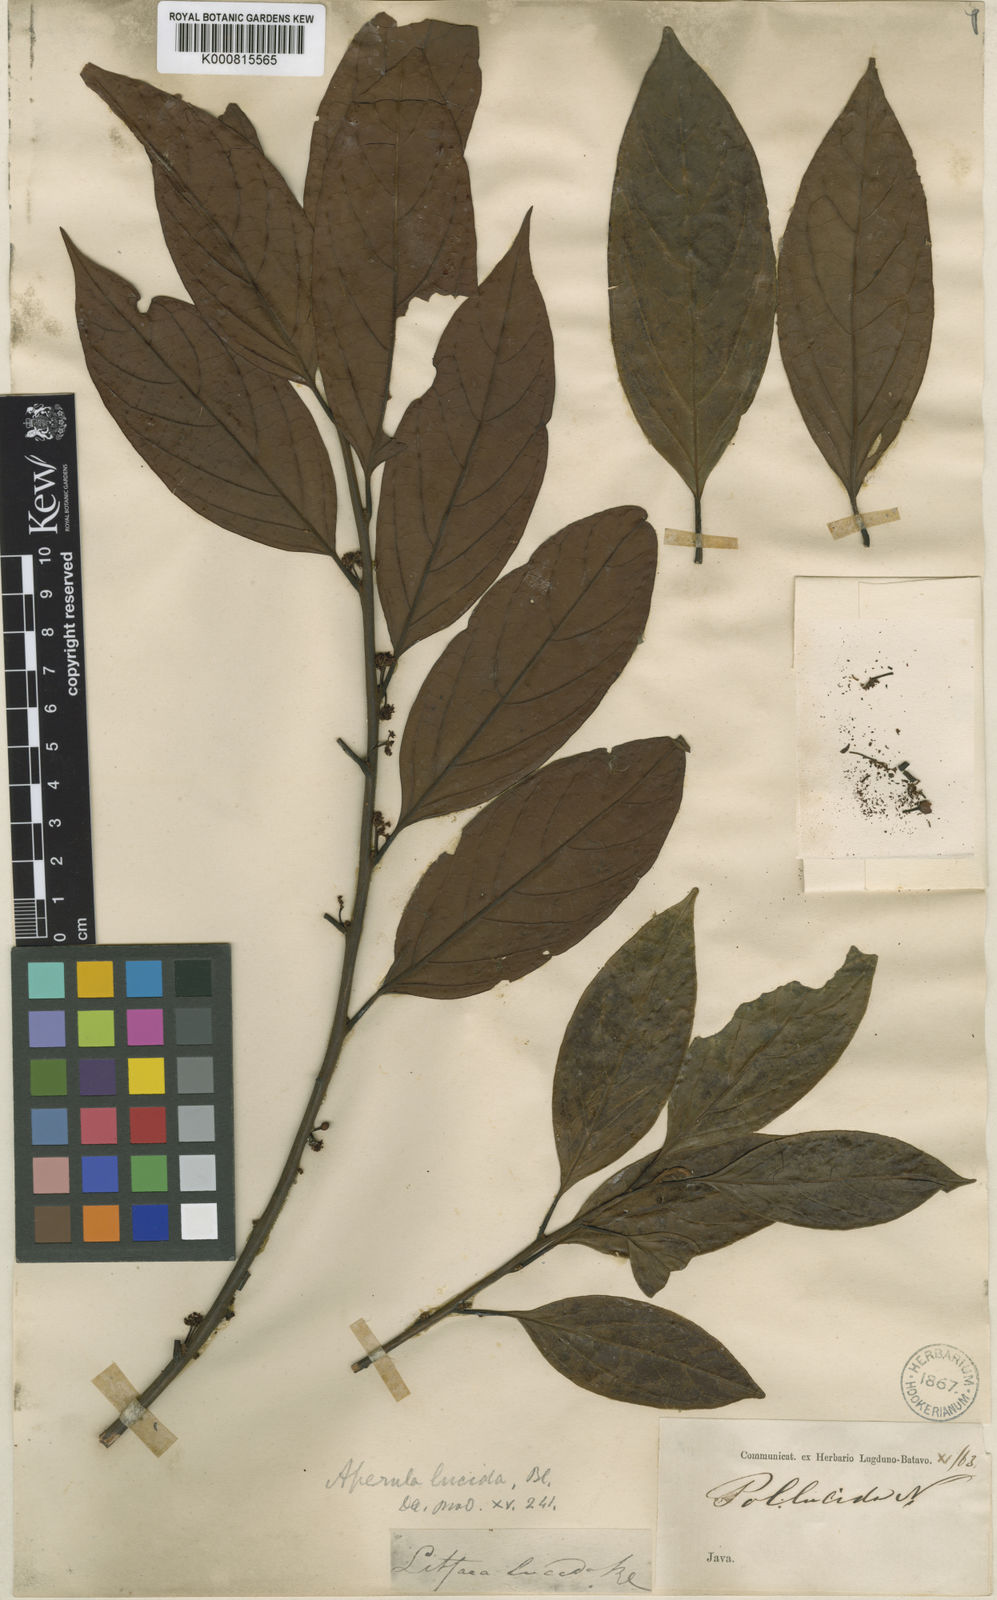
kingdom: Plantae
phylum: Tracheophyta
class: Magnoliopsida
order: Laurales
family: Lauraceae
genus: Lindera
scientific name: Lindera lucida
